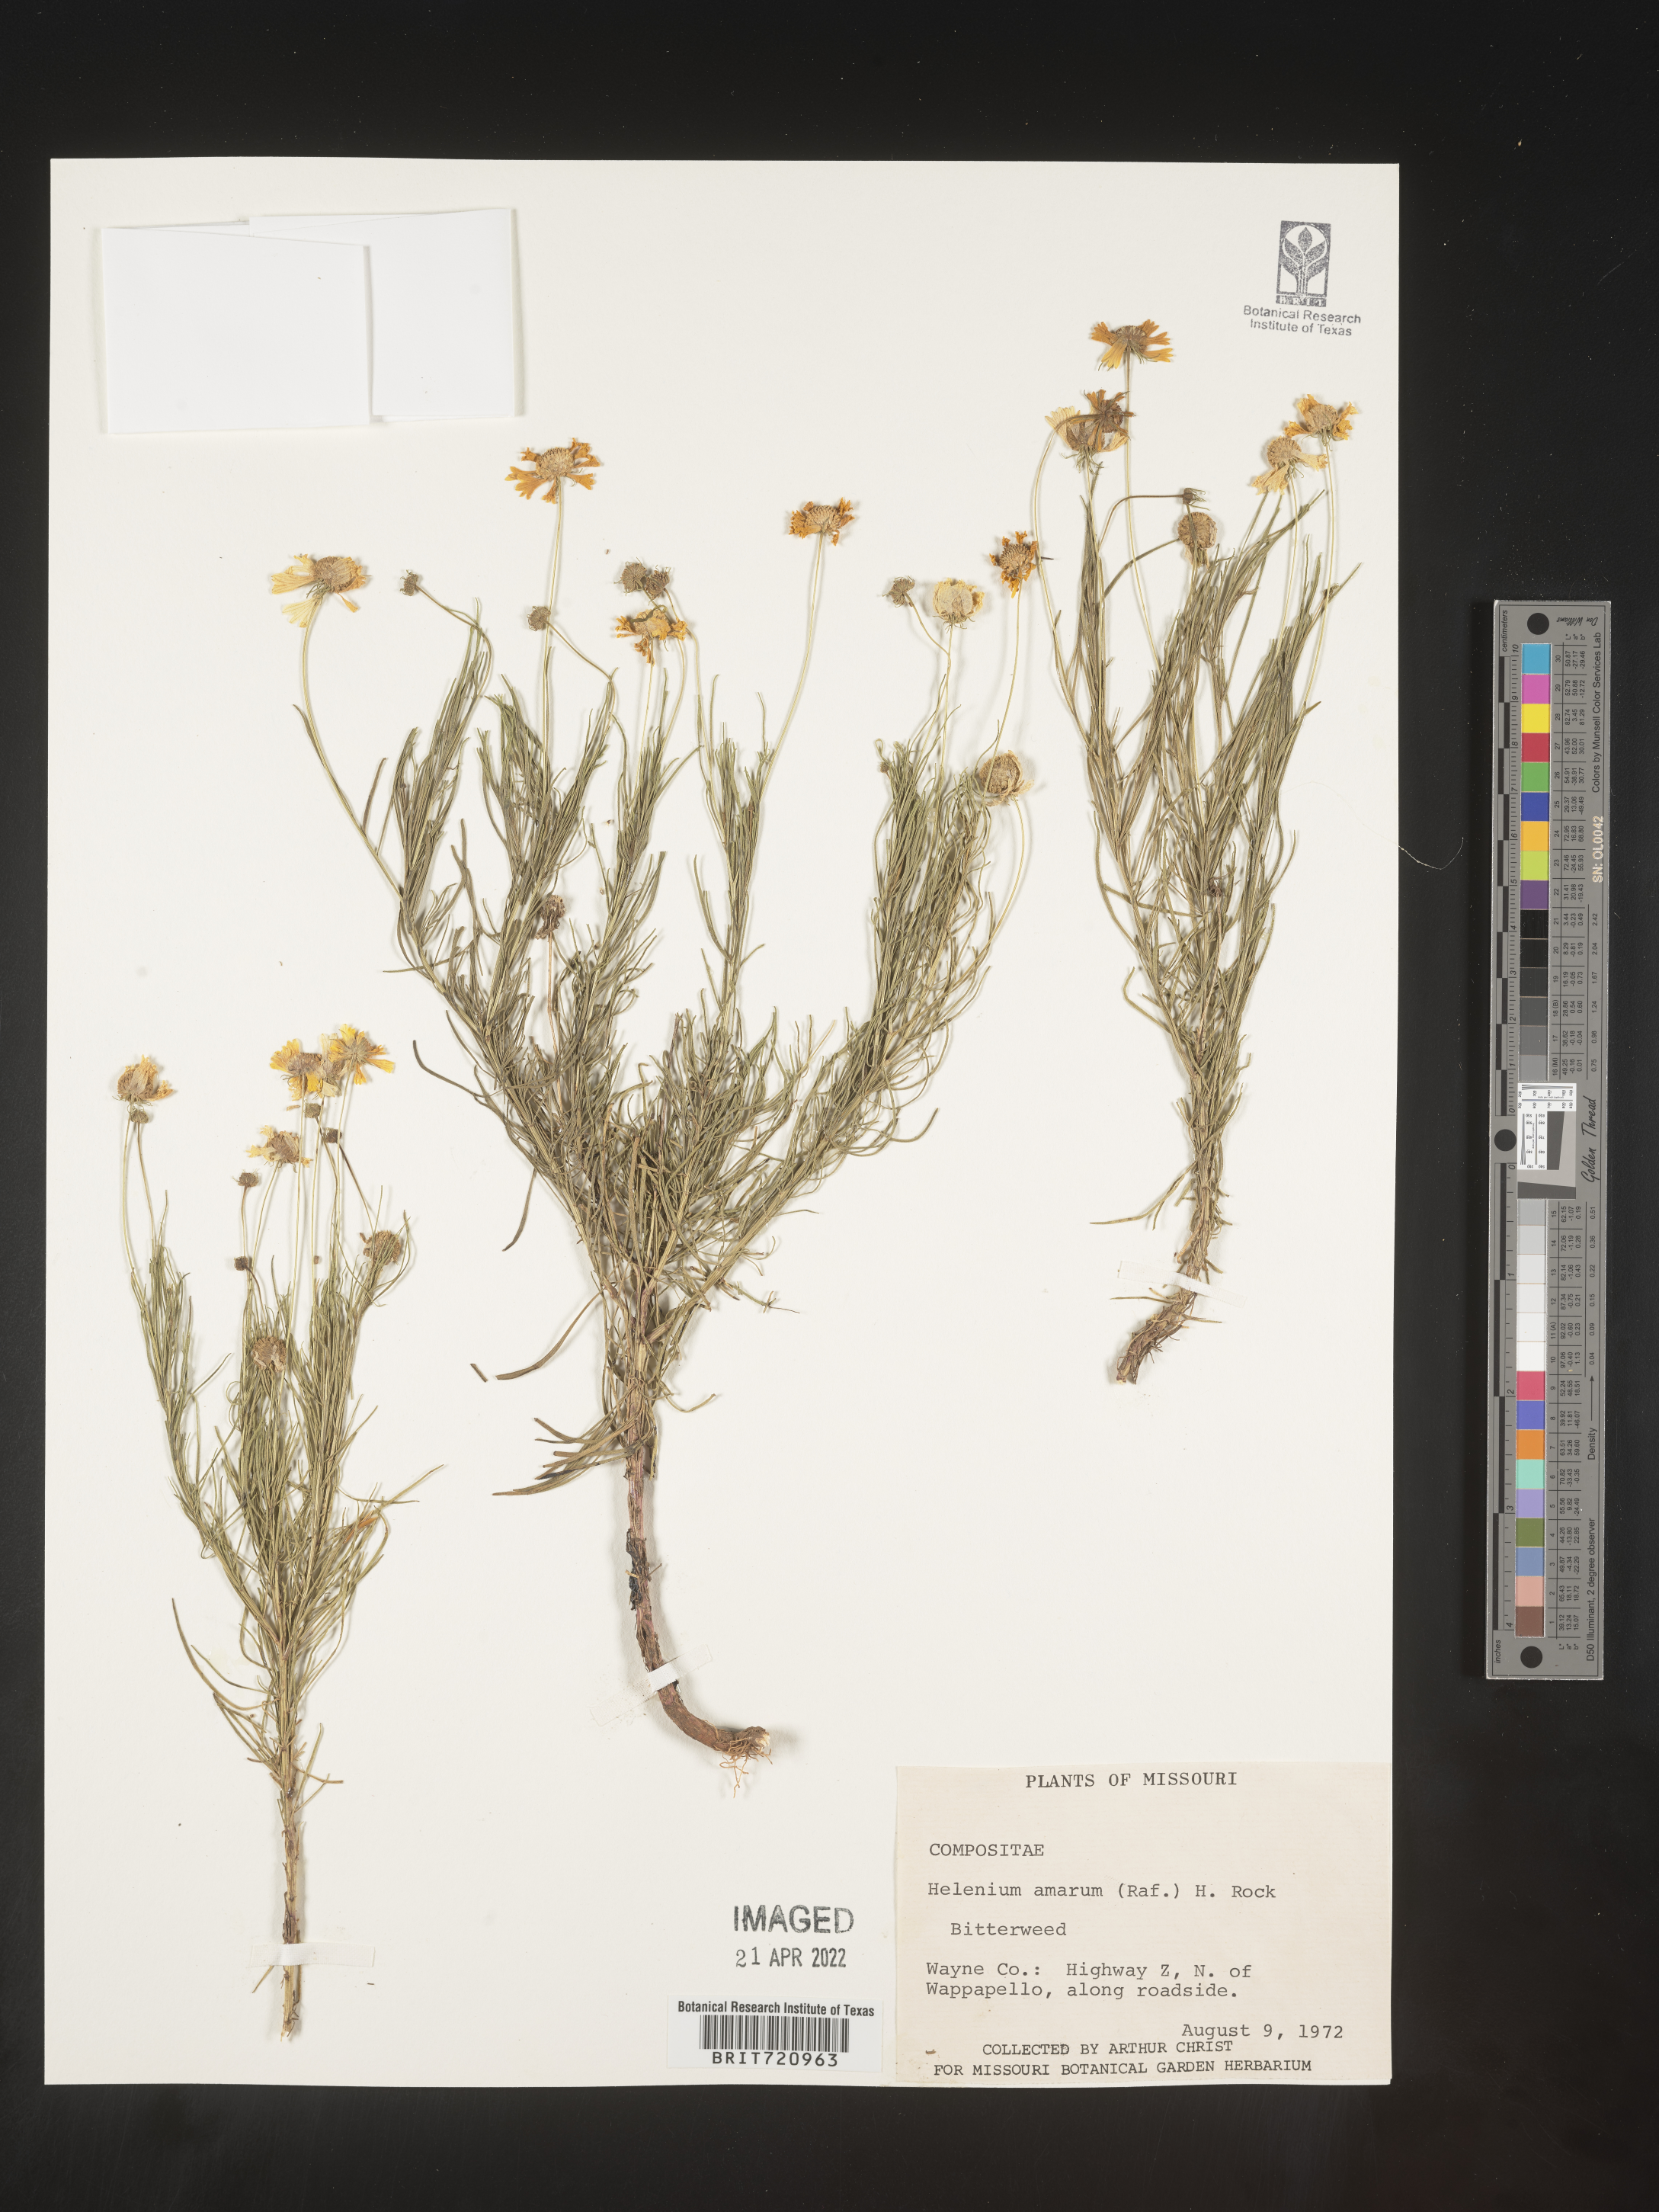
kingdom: Plantae
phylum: Tracheophyta
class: Magnoliopsida
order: Asterales
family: Asteraceae
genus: Helenium
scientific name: Helenium amarum
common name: Bitter sneezeweed
